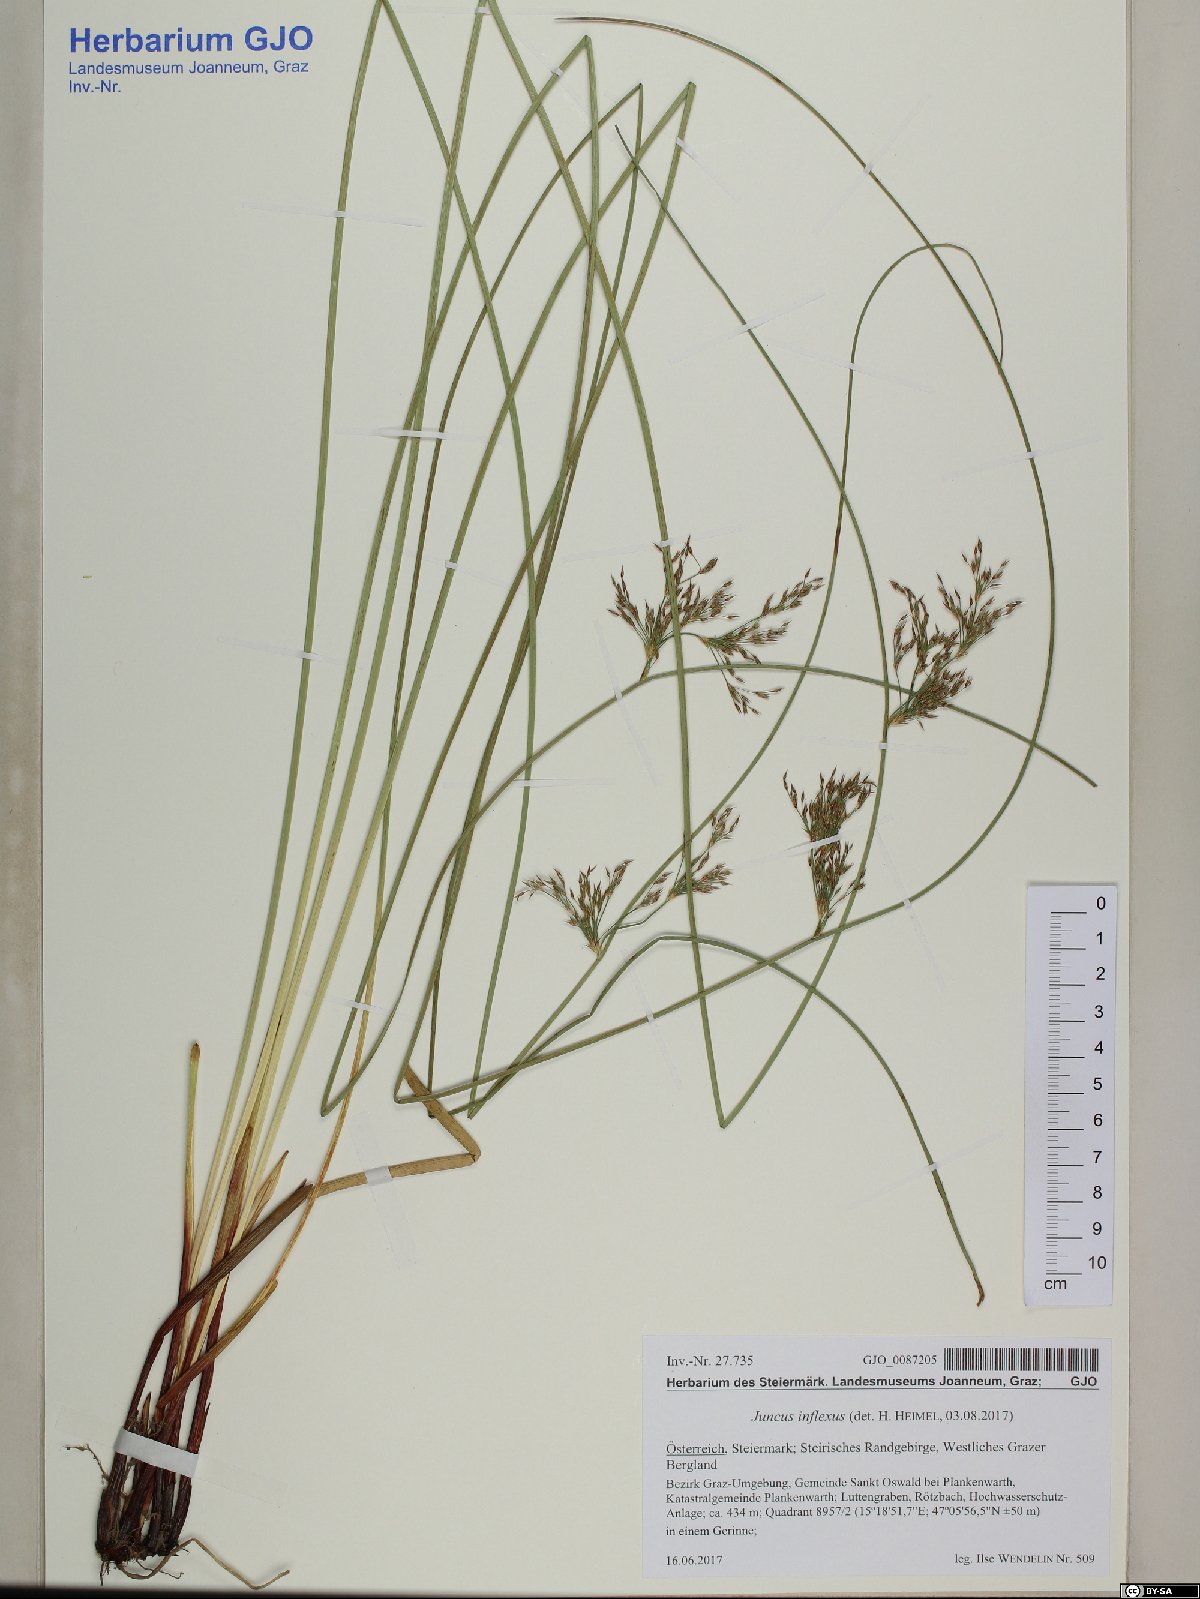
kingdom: Plantae
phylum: Tracheophyta
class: Liliopsida
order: Poales
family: Juncaceae
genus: Juncus
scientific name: Juncus inflexus
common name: Hard rush
